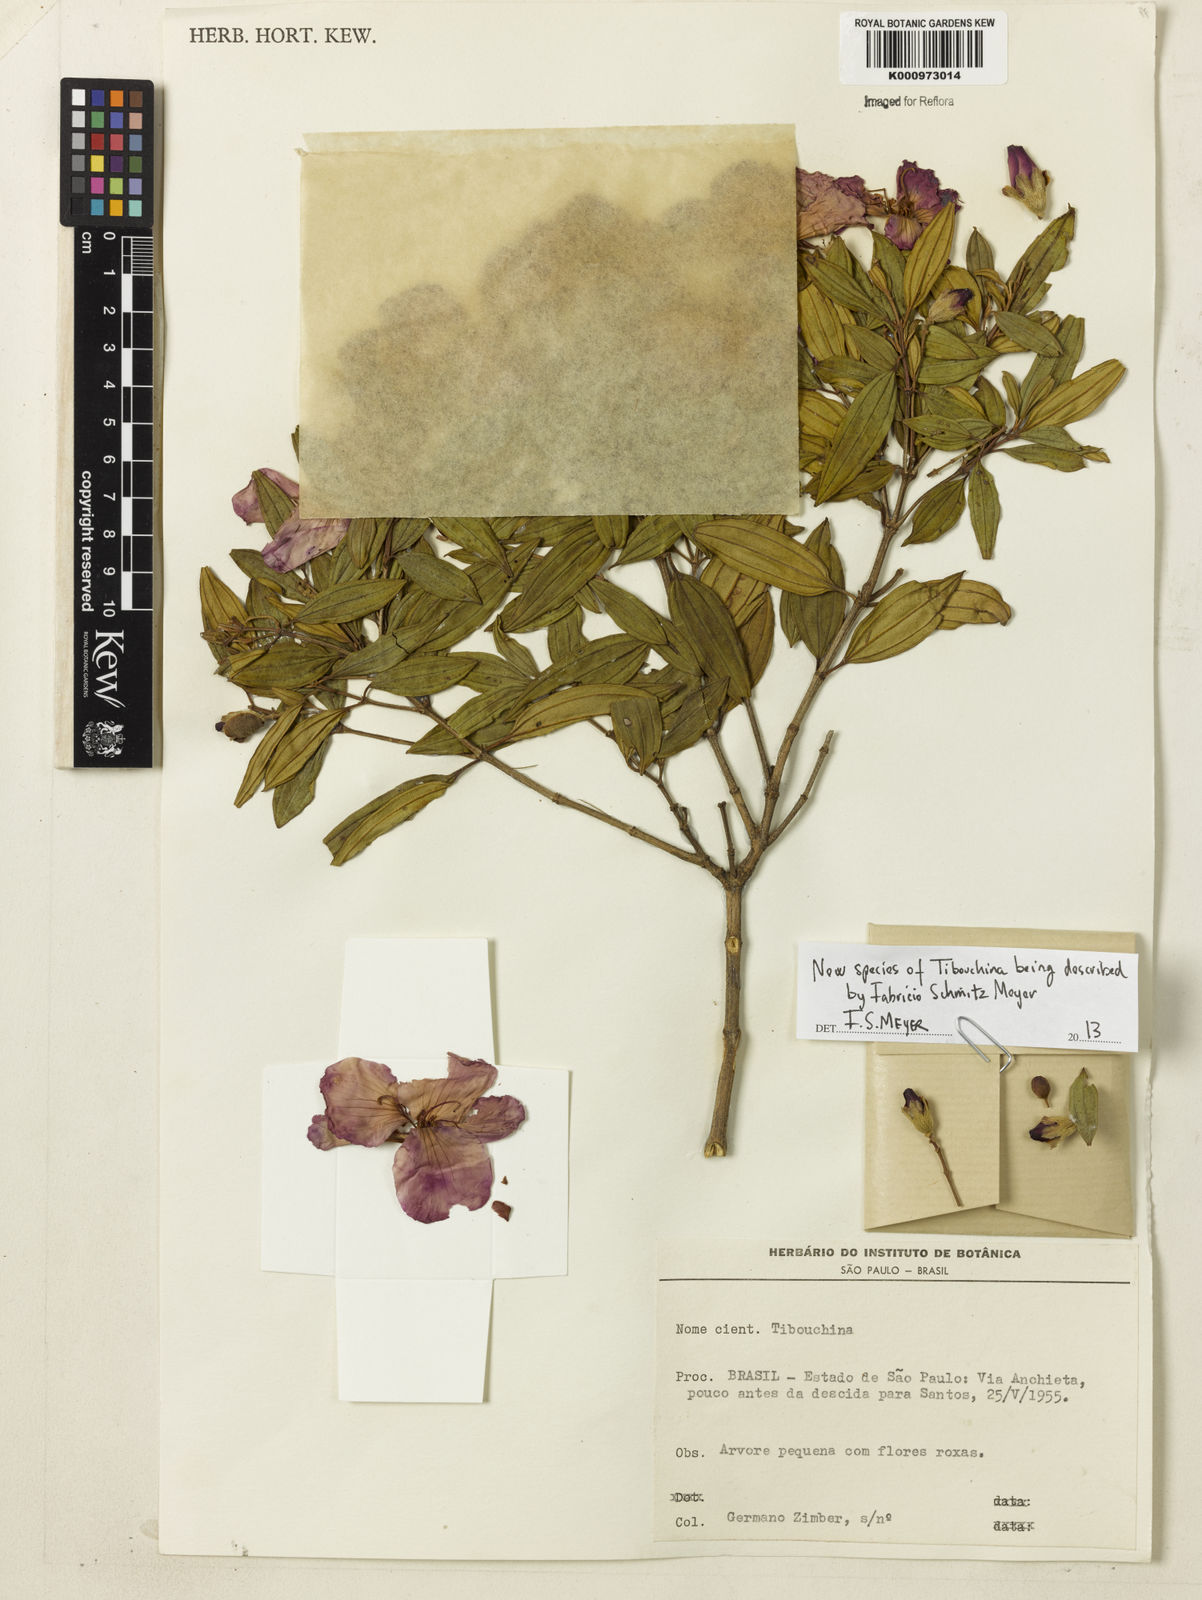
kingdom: Plantae
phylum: Tracheophyta
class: Magnoliopsida
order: Myrtales
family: Melastomataceae
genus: Tibouchina
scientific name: Tibouchina
